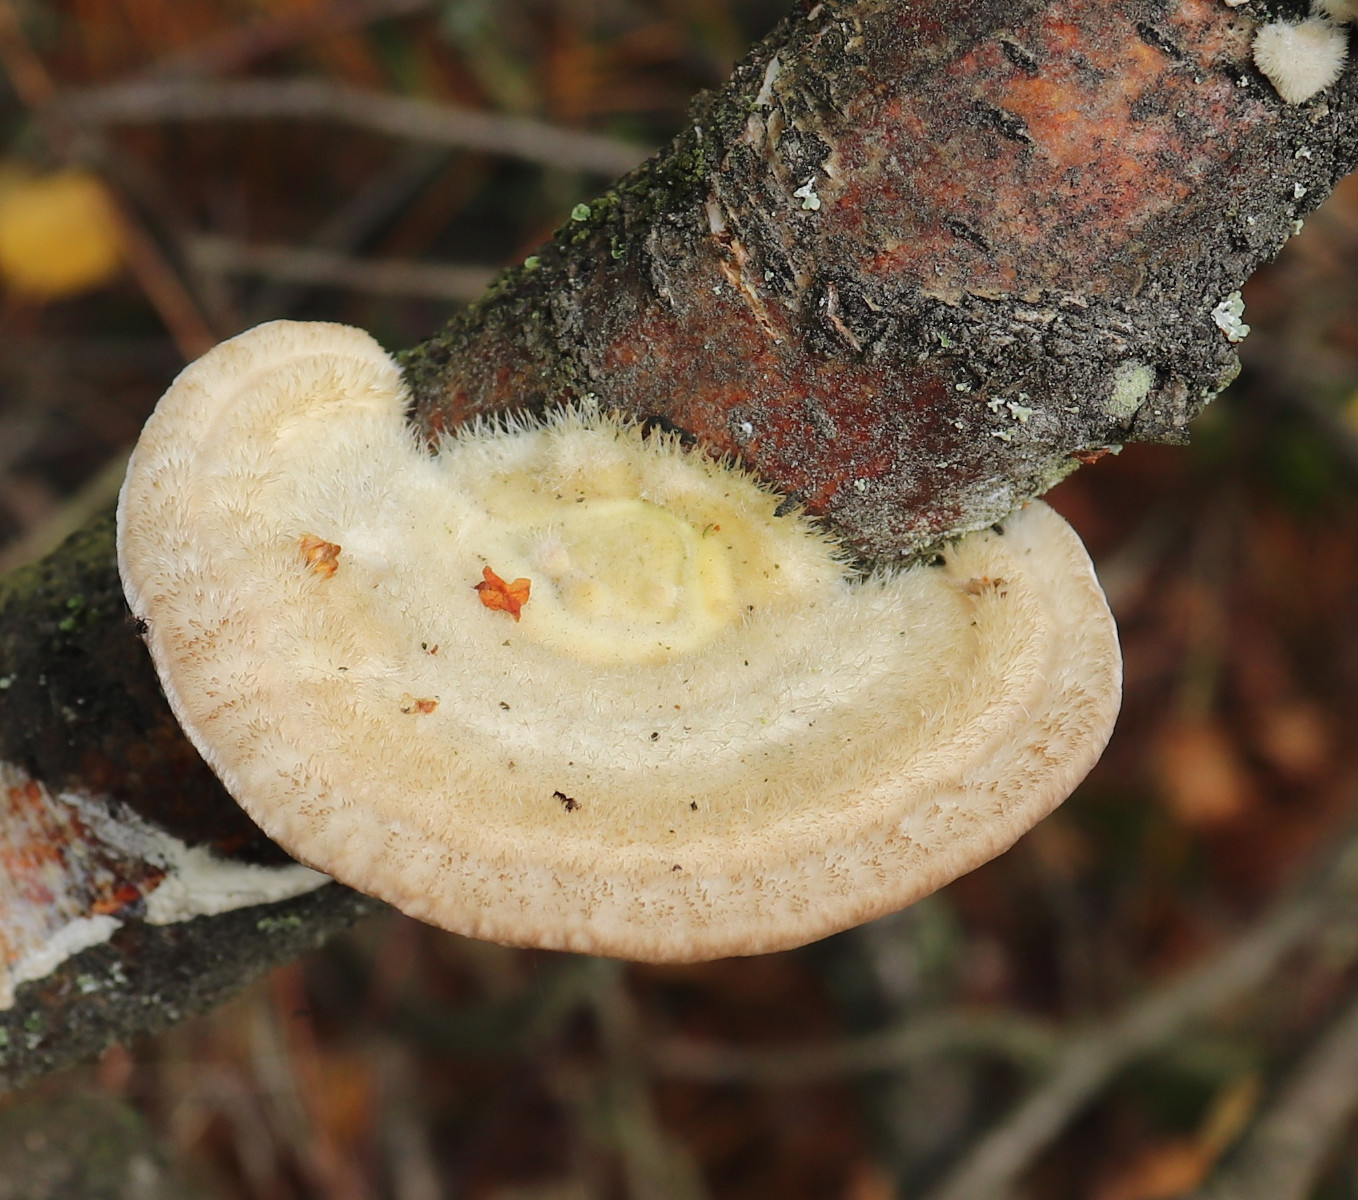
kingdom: Fungi
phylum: Basidiomycota
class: Agaricomycetes
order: Polyporales
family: Polyporaceae
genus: Trametes
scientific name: Trametes hirsuta
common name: håret læderporesvamp
